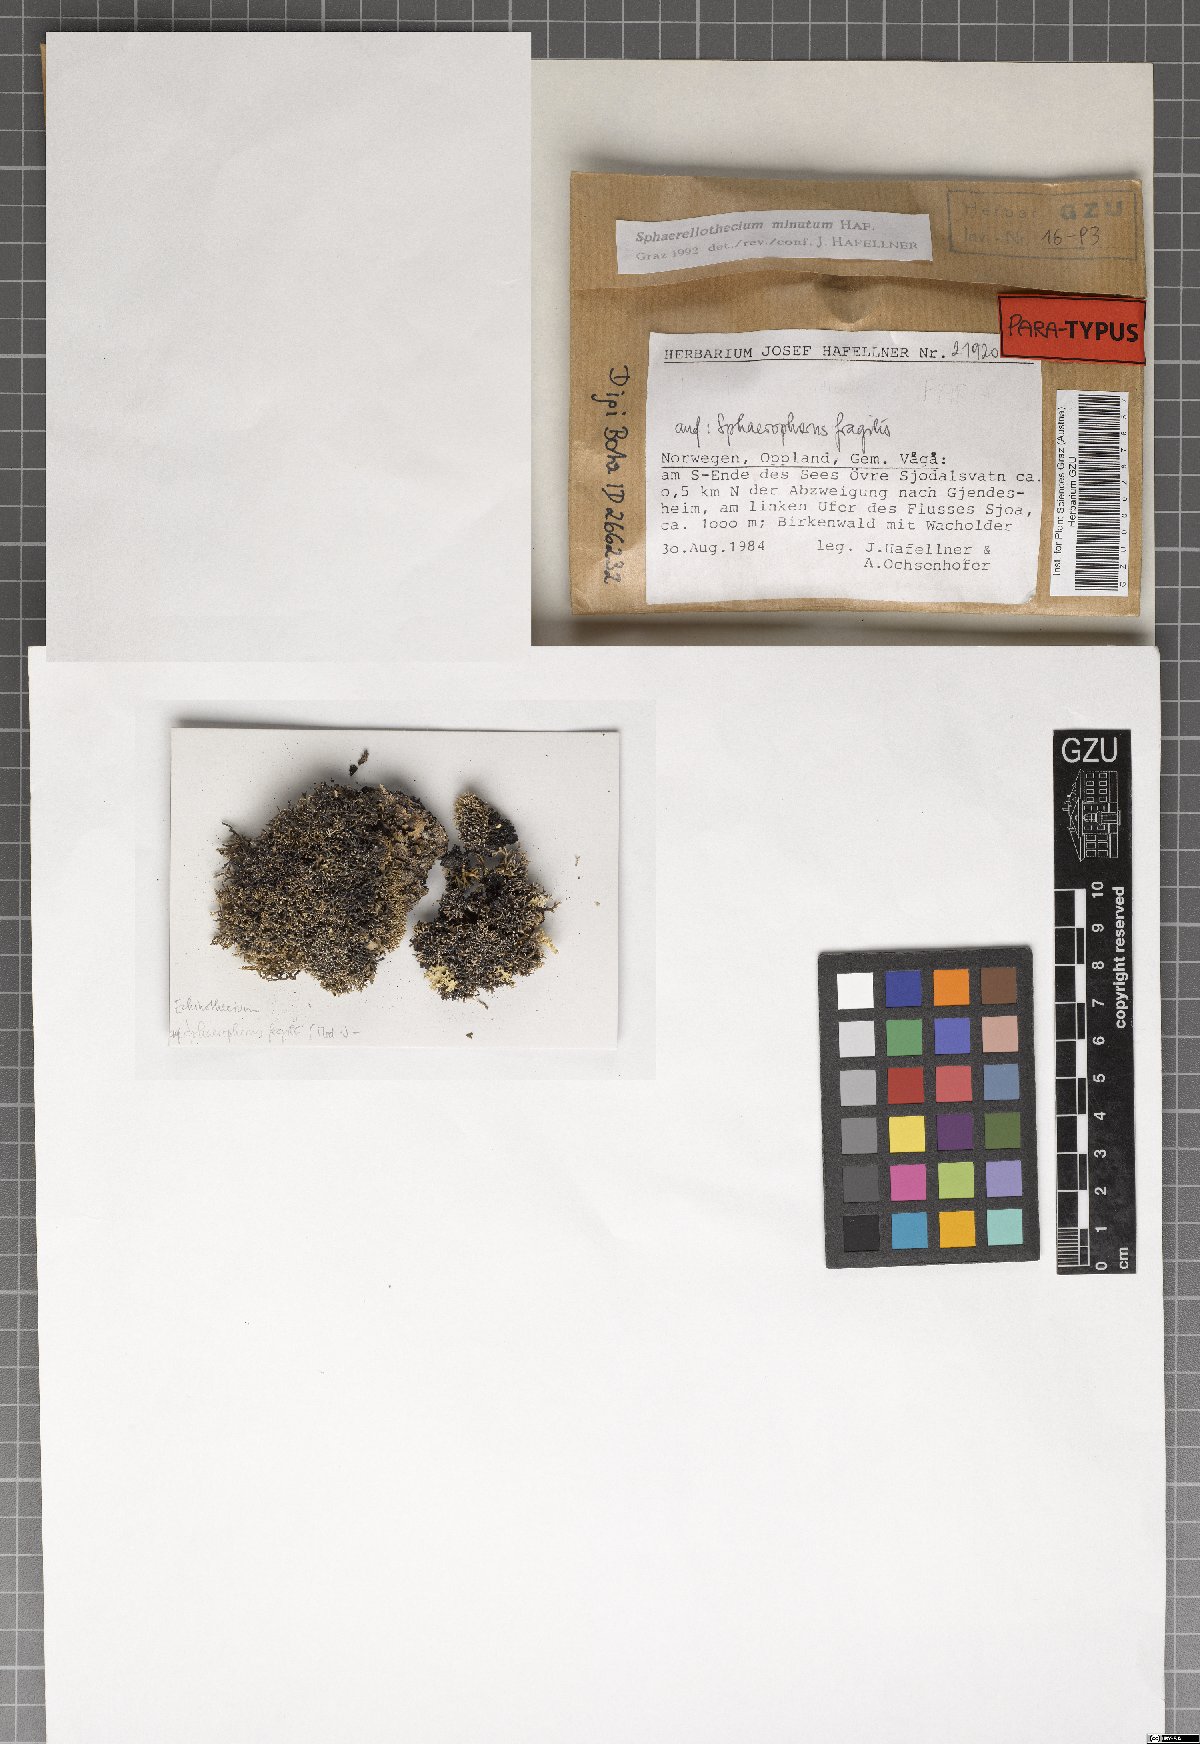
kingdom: Fungi
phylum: Ascomycota
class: Dothideomycetes
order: Mycosphaerellales
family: Mycosphaerellaceae
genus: Sphaerellothecium
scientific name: Sphaerellothecium minutum
